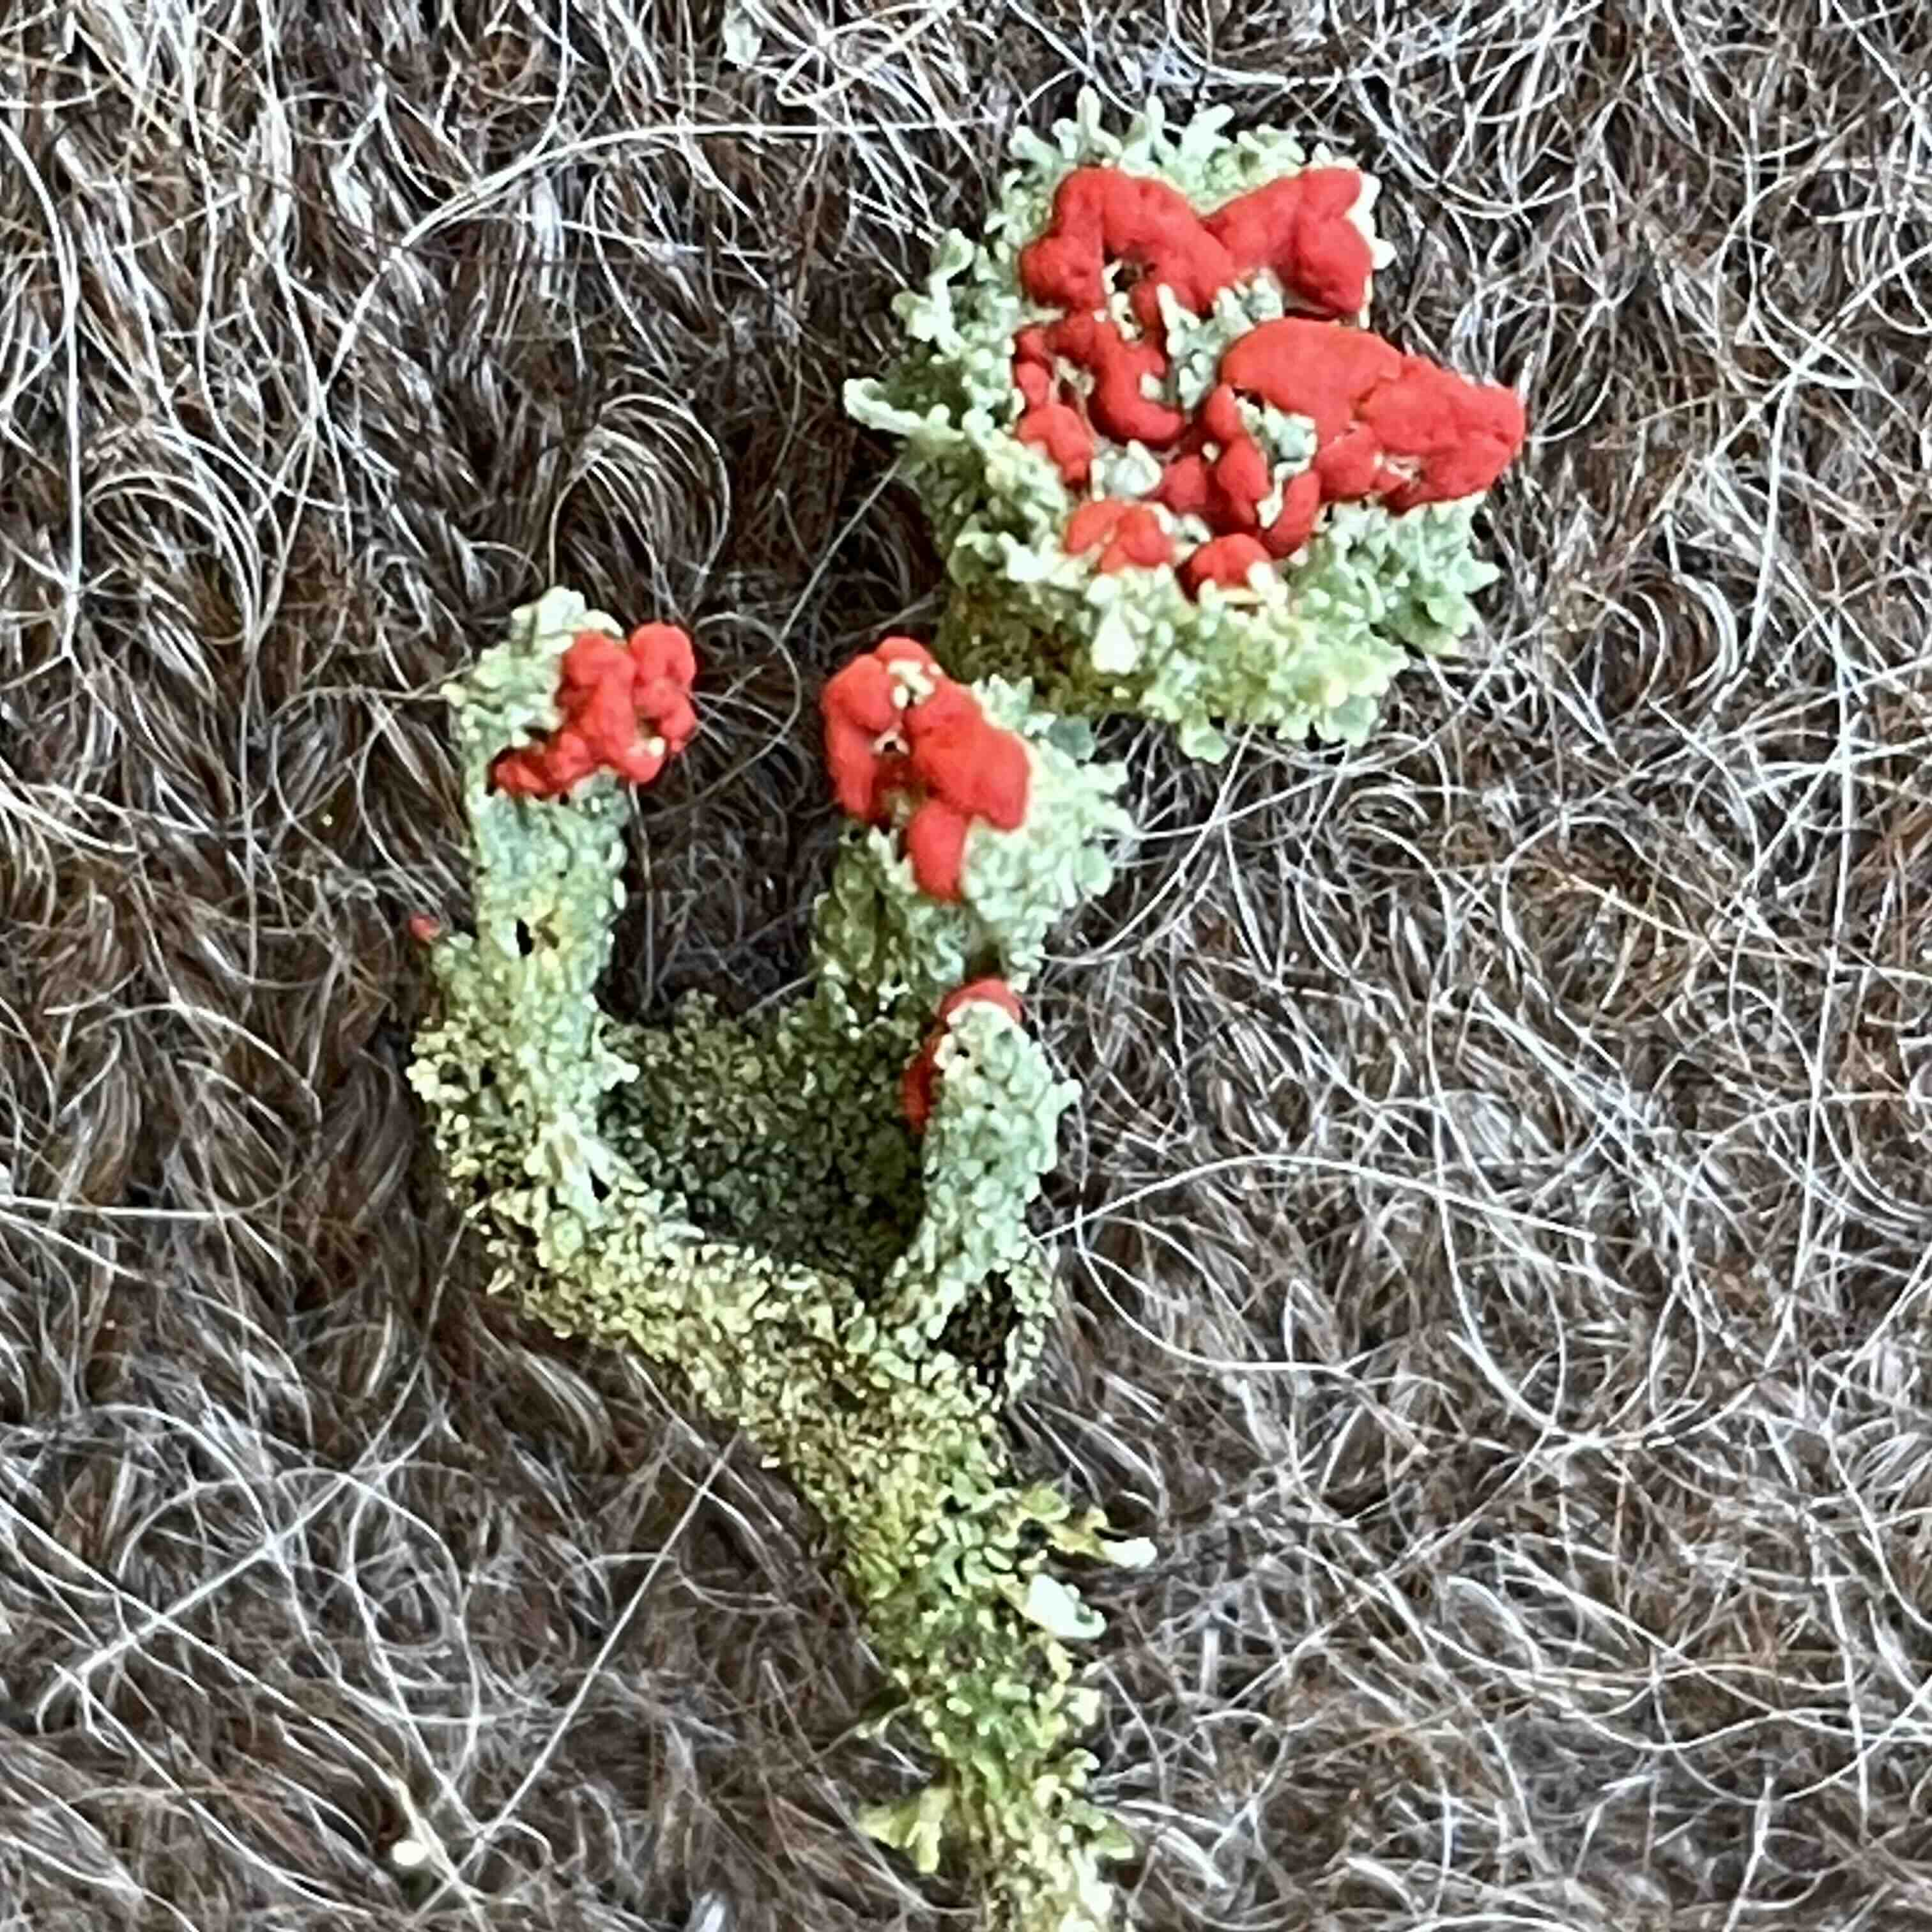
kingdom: Fungi
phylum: Ascomycota
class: Lecanoromycetes
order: Lecanorales
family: Cladoniaceae
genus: Cladonia
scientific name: Cladonia diversa
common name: rød bægerlav
